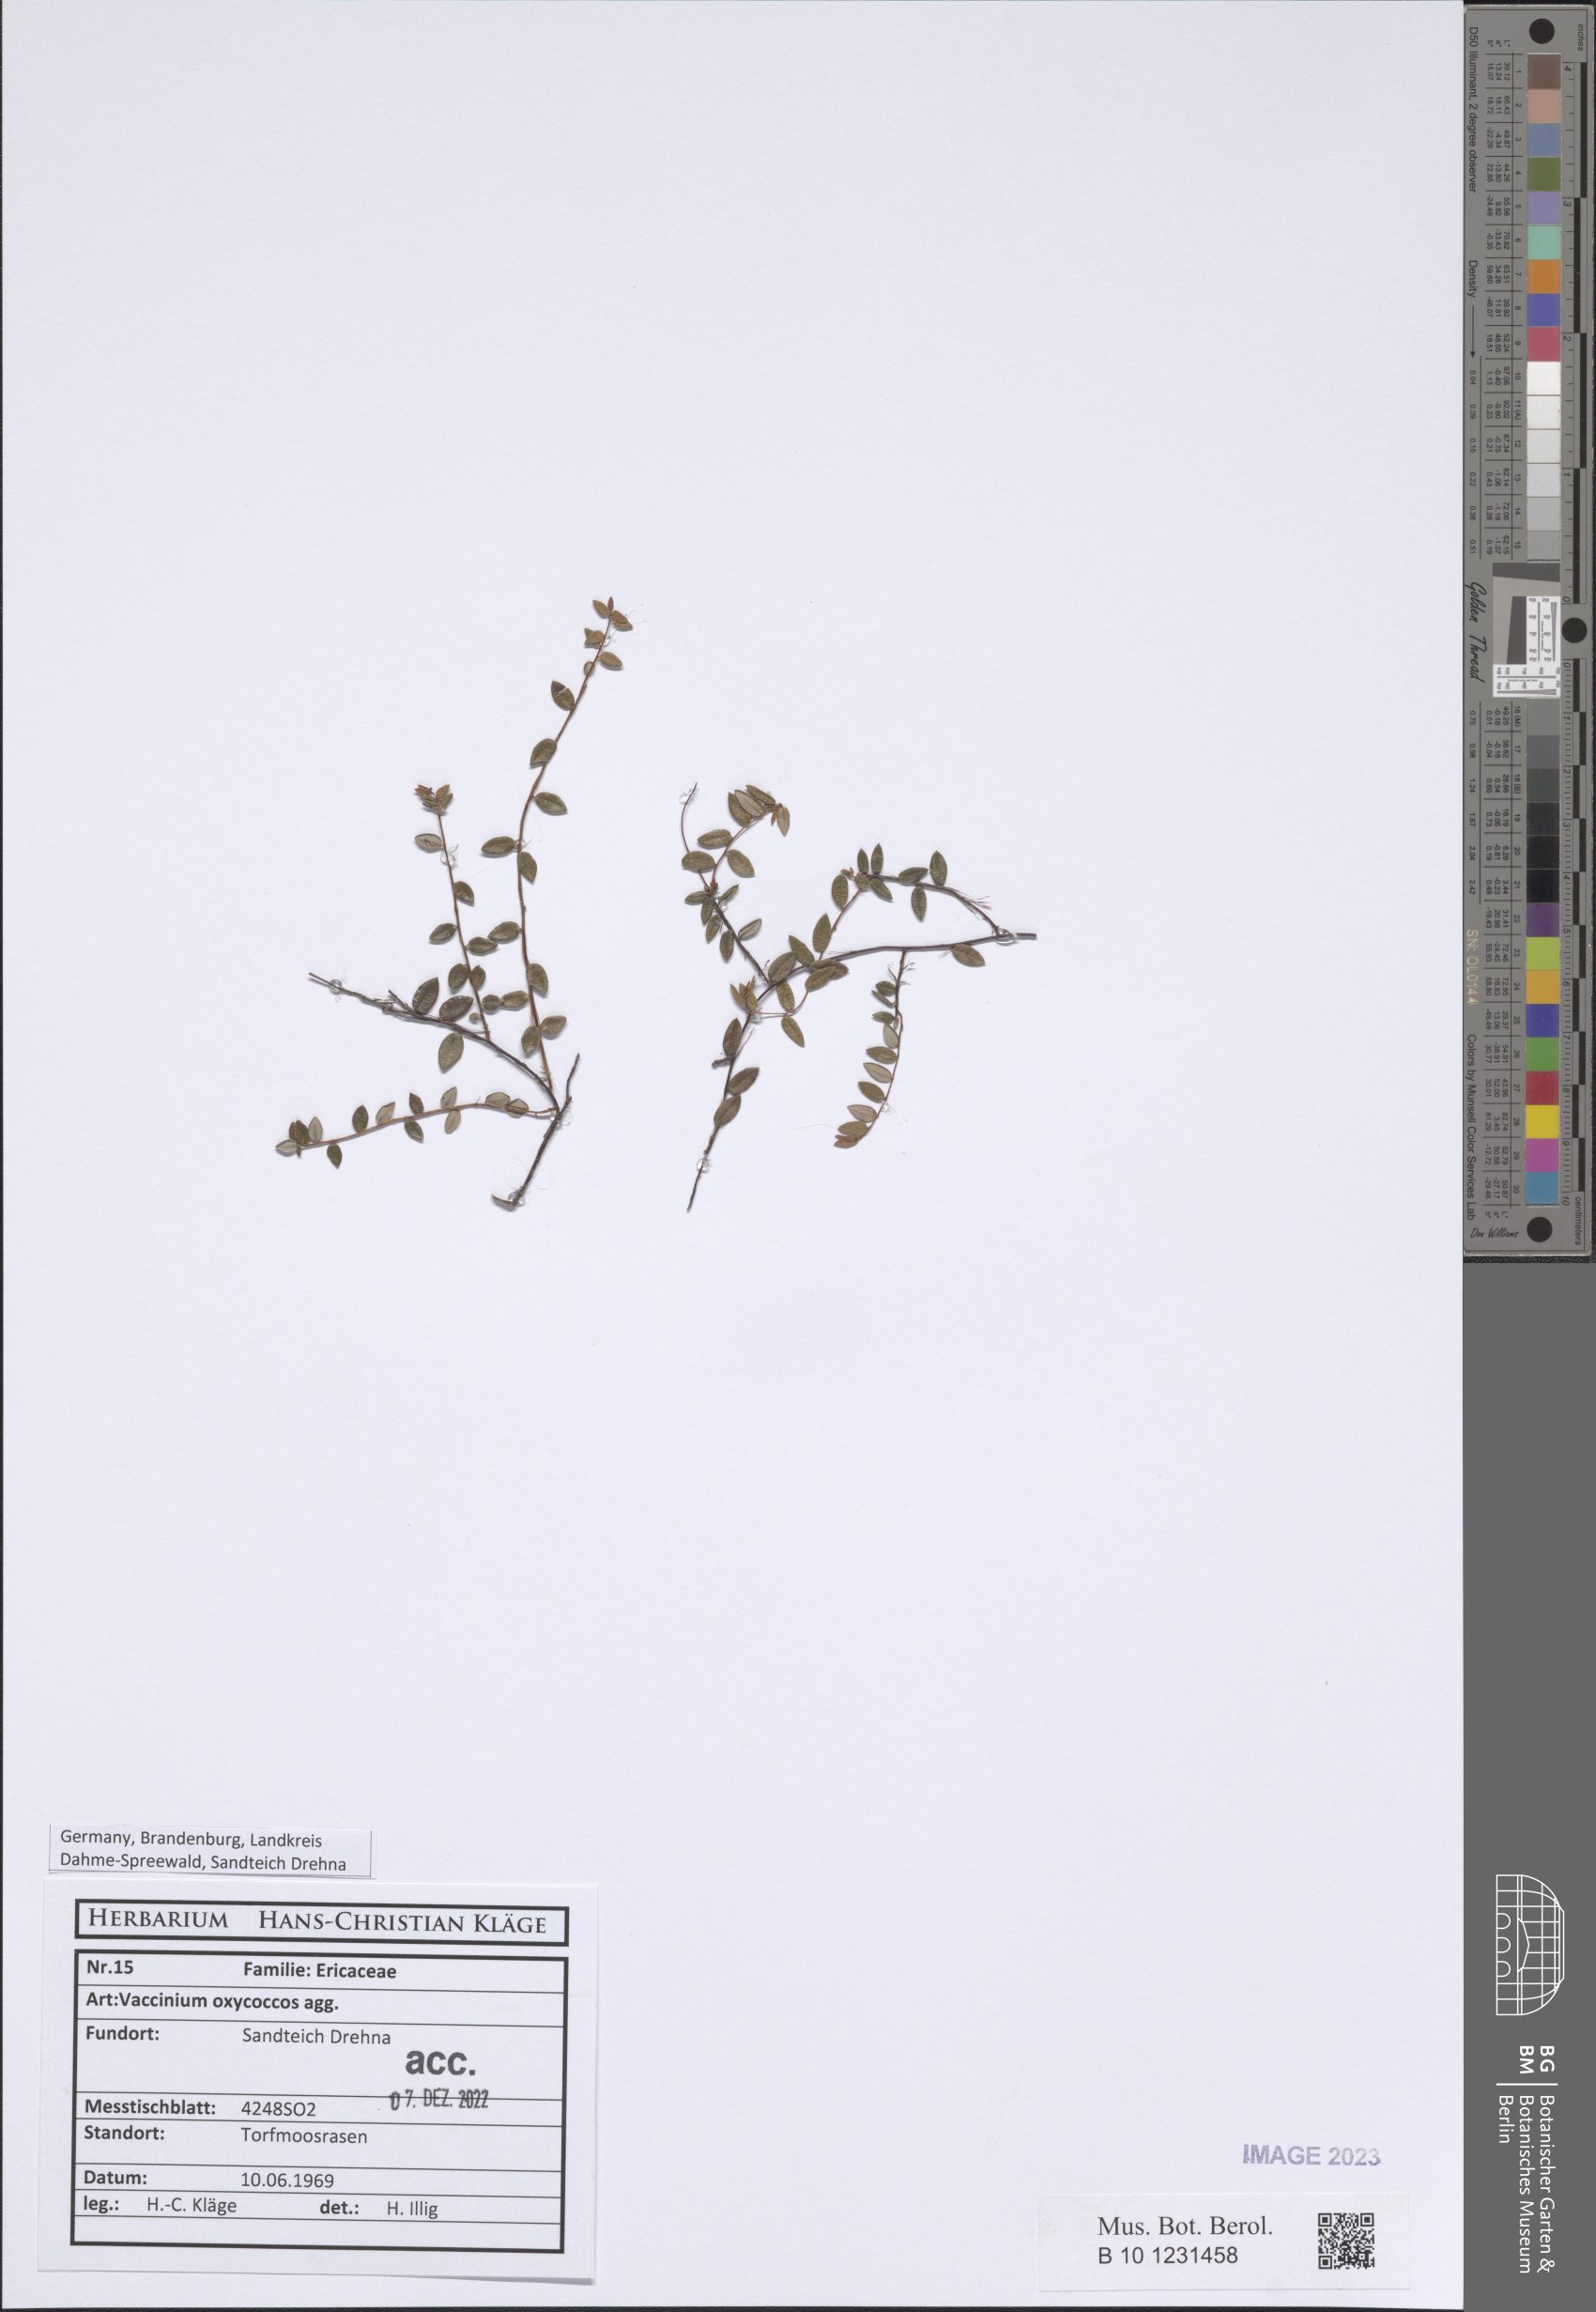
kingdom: Plantae
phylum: Tracheophyta
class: Magnoliopsida
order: Ericales
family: Ericaceae
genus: Vaccinium
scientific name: Vaccinium oxycoccos
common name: Cranberry
